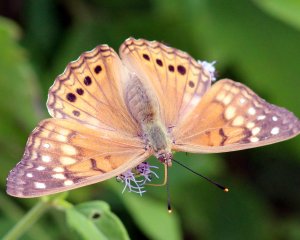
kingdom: Animalia
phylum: Arthropoda
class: Insecta
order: Lepidoptera
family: Nymphalidae
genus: Asterocampa
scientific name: Asterocampa clyton
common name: Tawny Emperor
